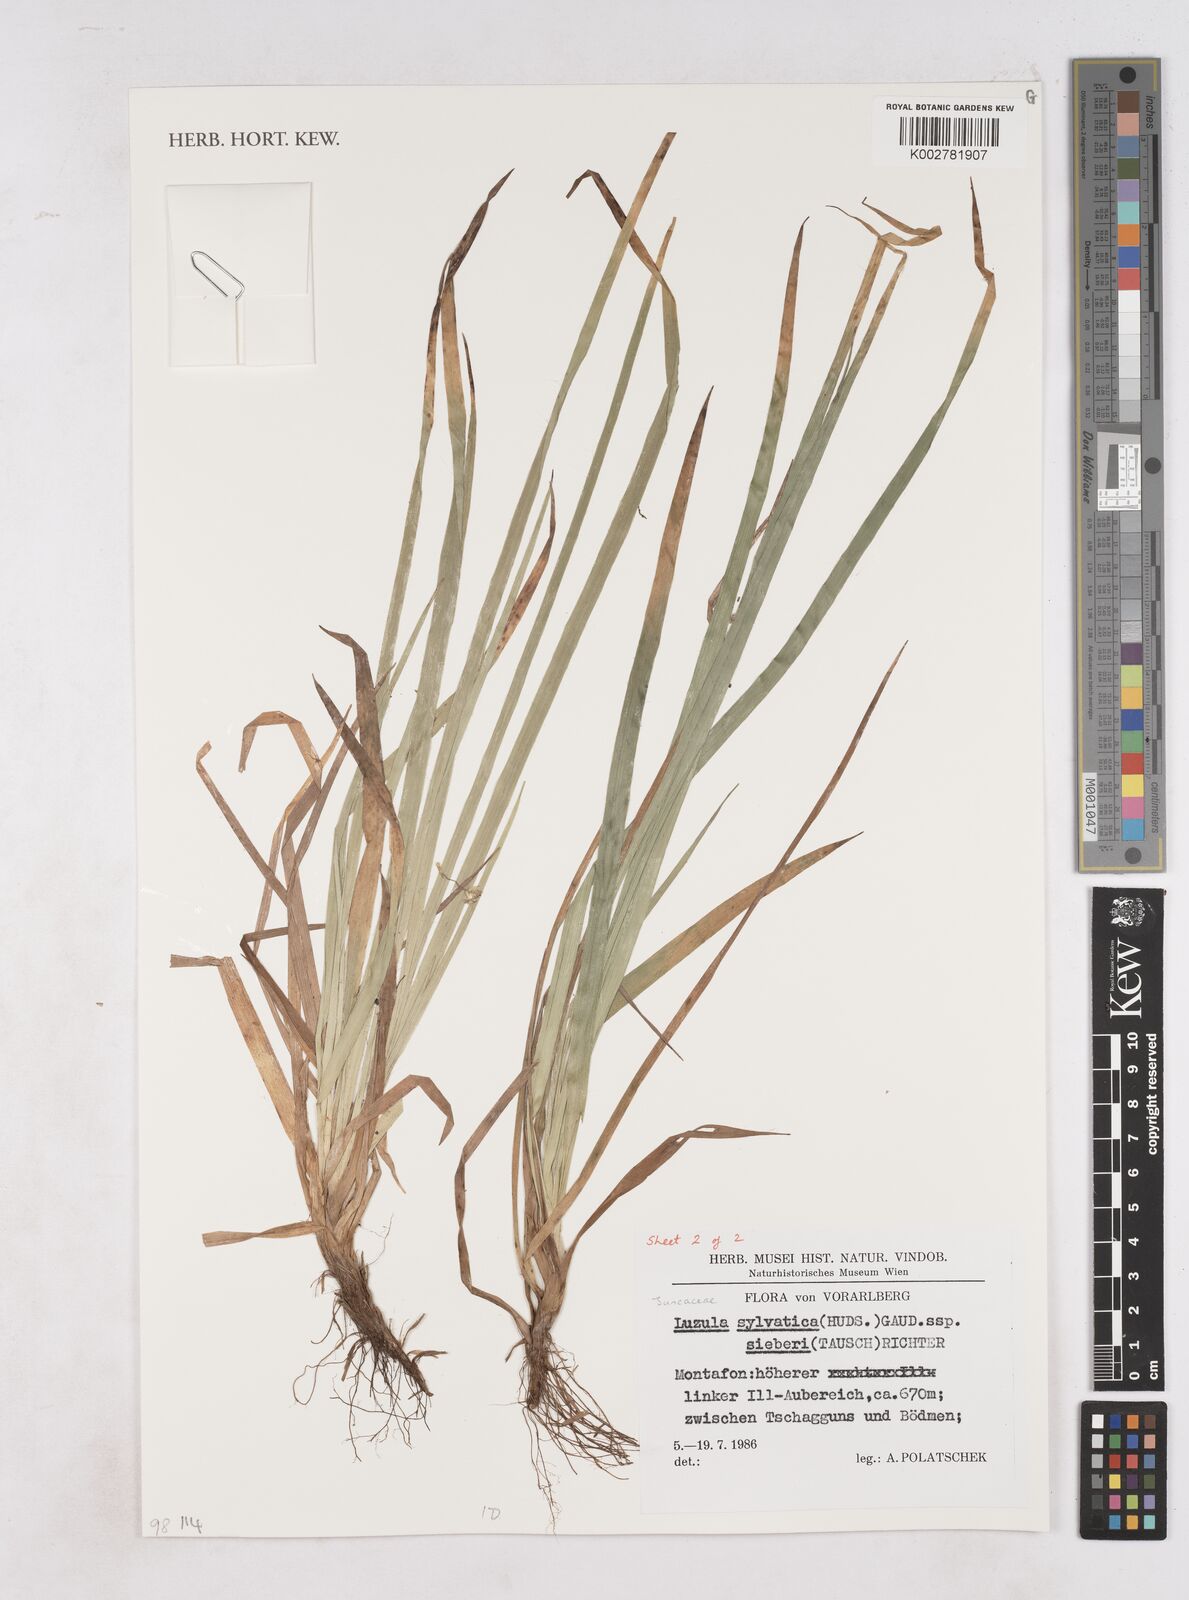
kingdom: Plantae
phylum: Tracheophyta
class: Liliopsida
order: Poales
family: Juncaceae
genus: Luzula
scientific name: Luzula sylvatica
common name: Great wood-rush
